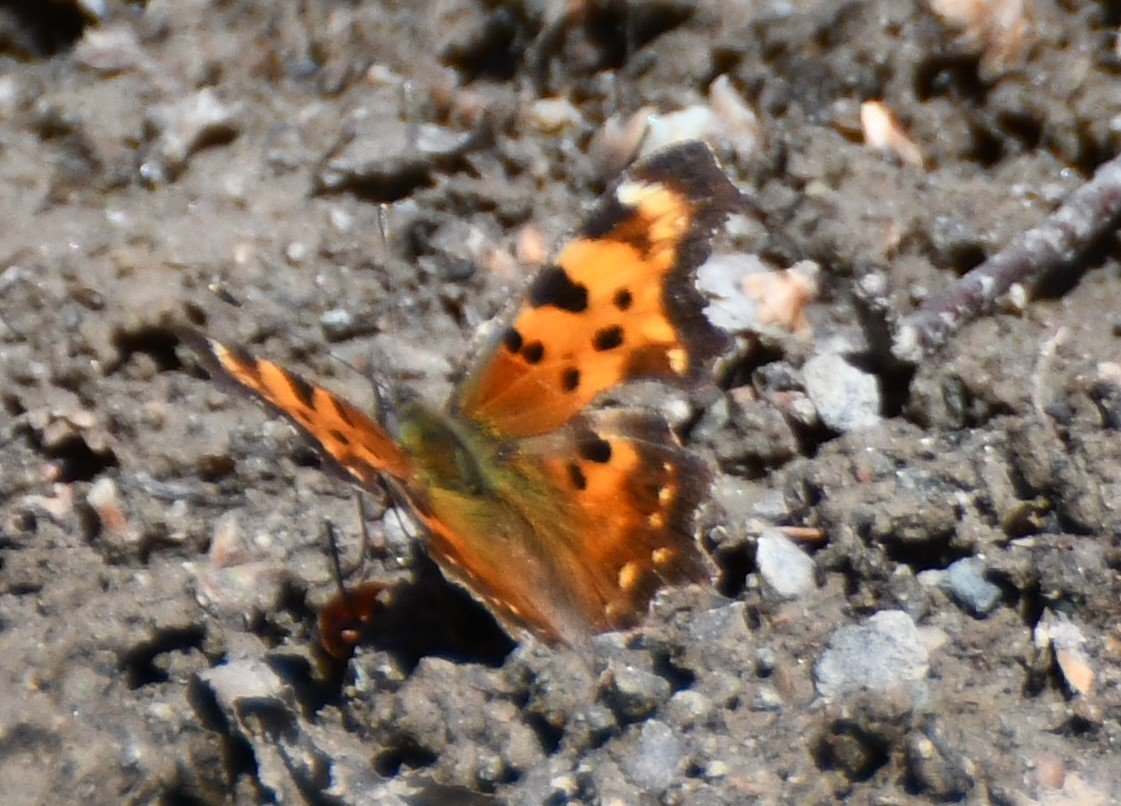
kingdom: Animalia
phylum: Arthropoda
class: Insecta
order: Lepidoptera
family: Nymphalidae
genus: Polygonia
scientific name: Polygonia
